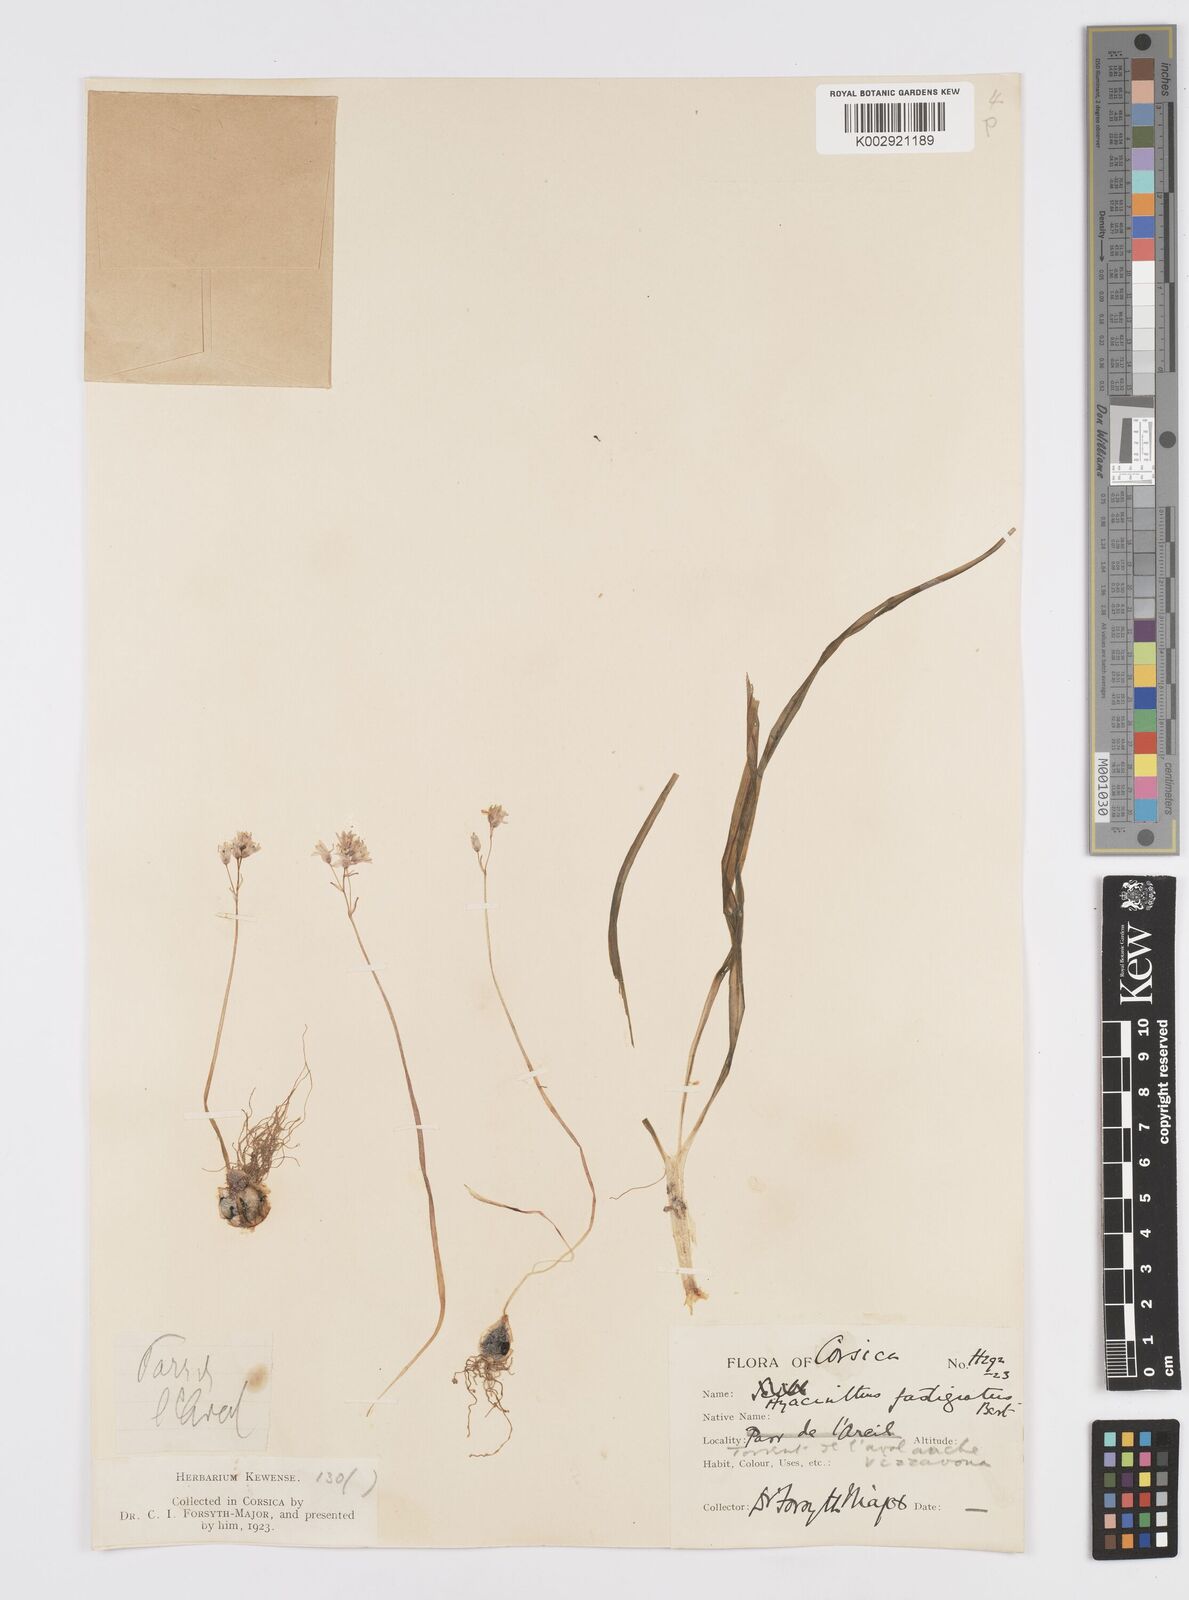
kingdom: Plantae
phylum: Tracheophyta
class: Liliopsida
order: Asparagales
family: Asparagaceae
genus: Brimeura
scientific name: Brimeura fastigiata
